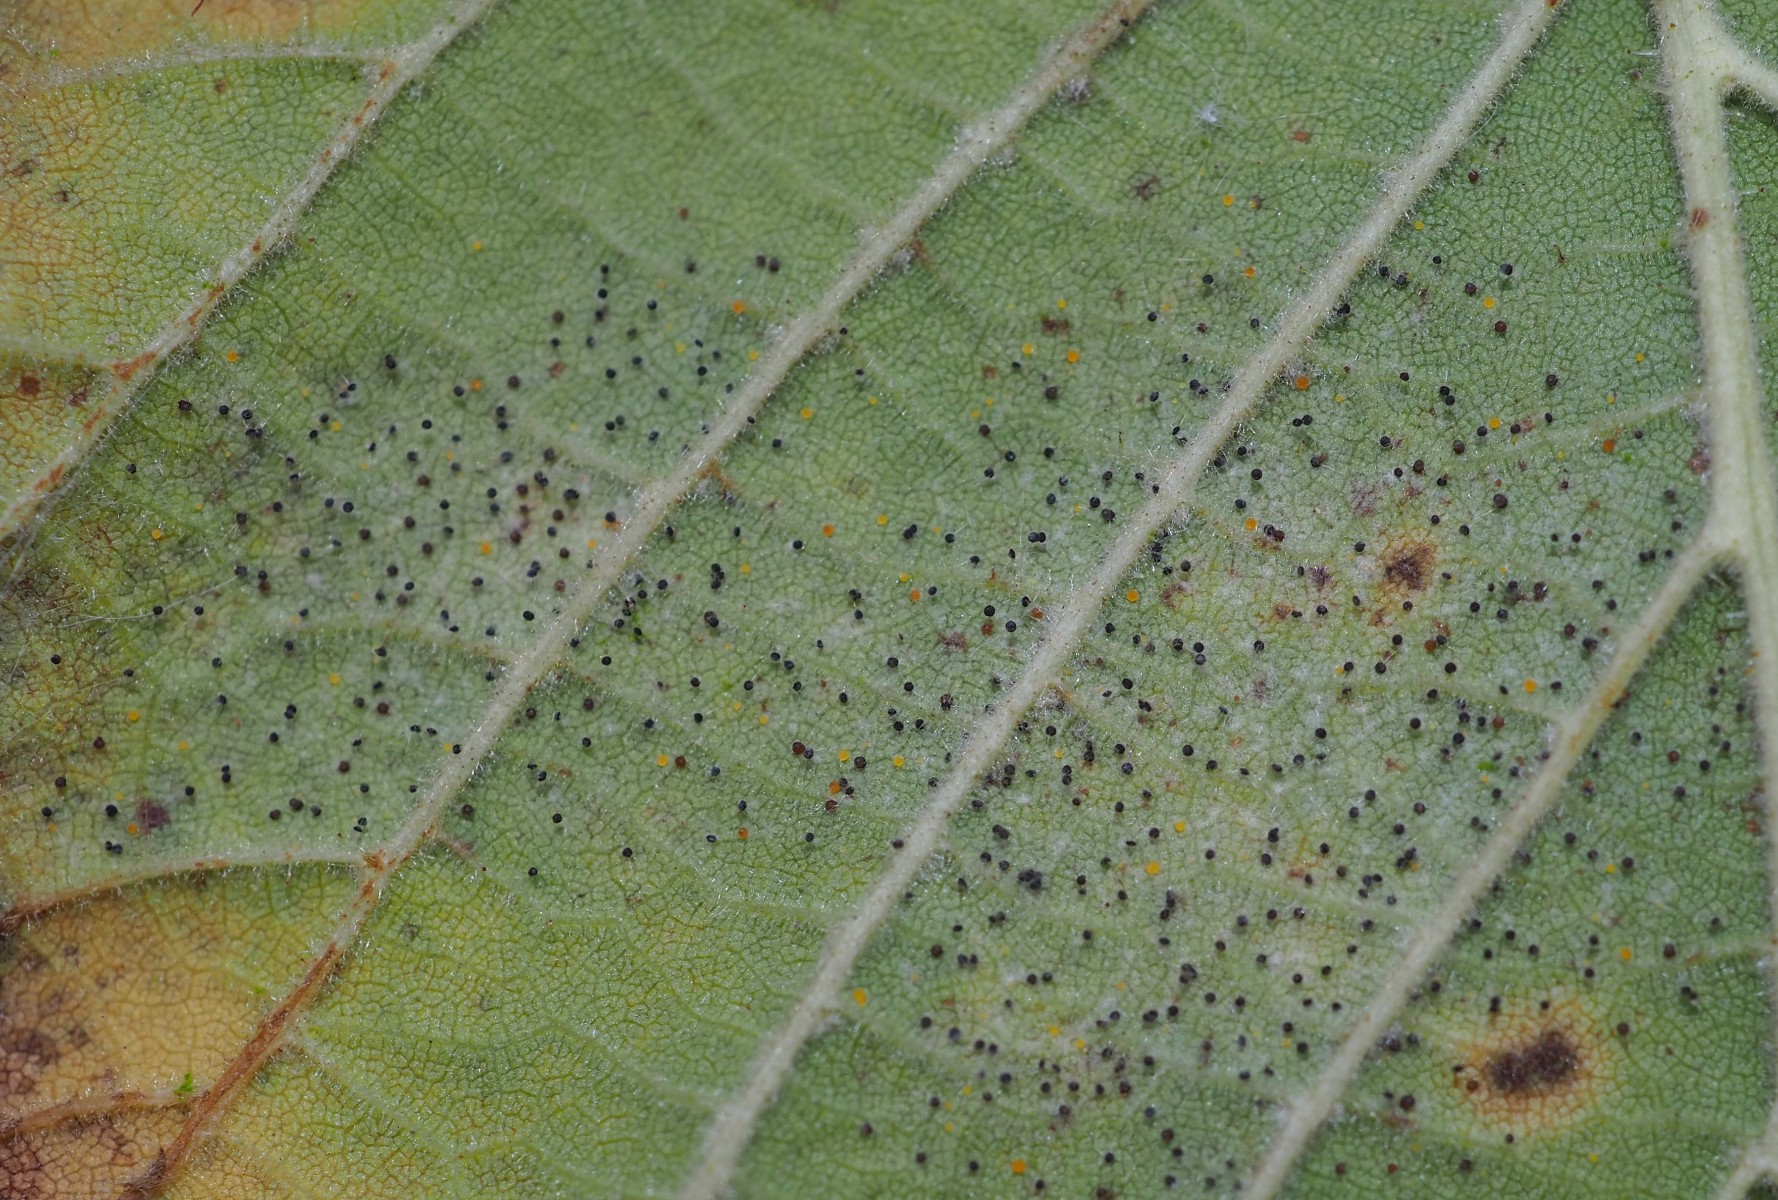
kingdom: Fungi
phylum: Ascomycota
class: Leotiomycetes
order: Helotiales
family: Erysiphaceae
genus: Phyllactinia
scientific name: Phyllactinia guttata
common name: hassel-meldug
